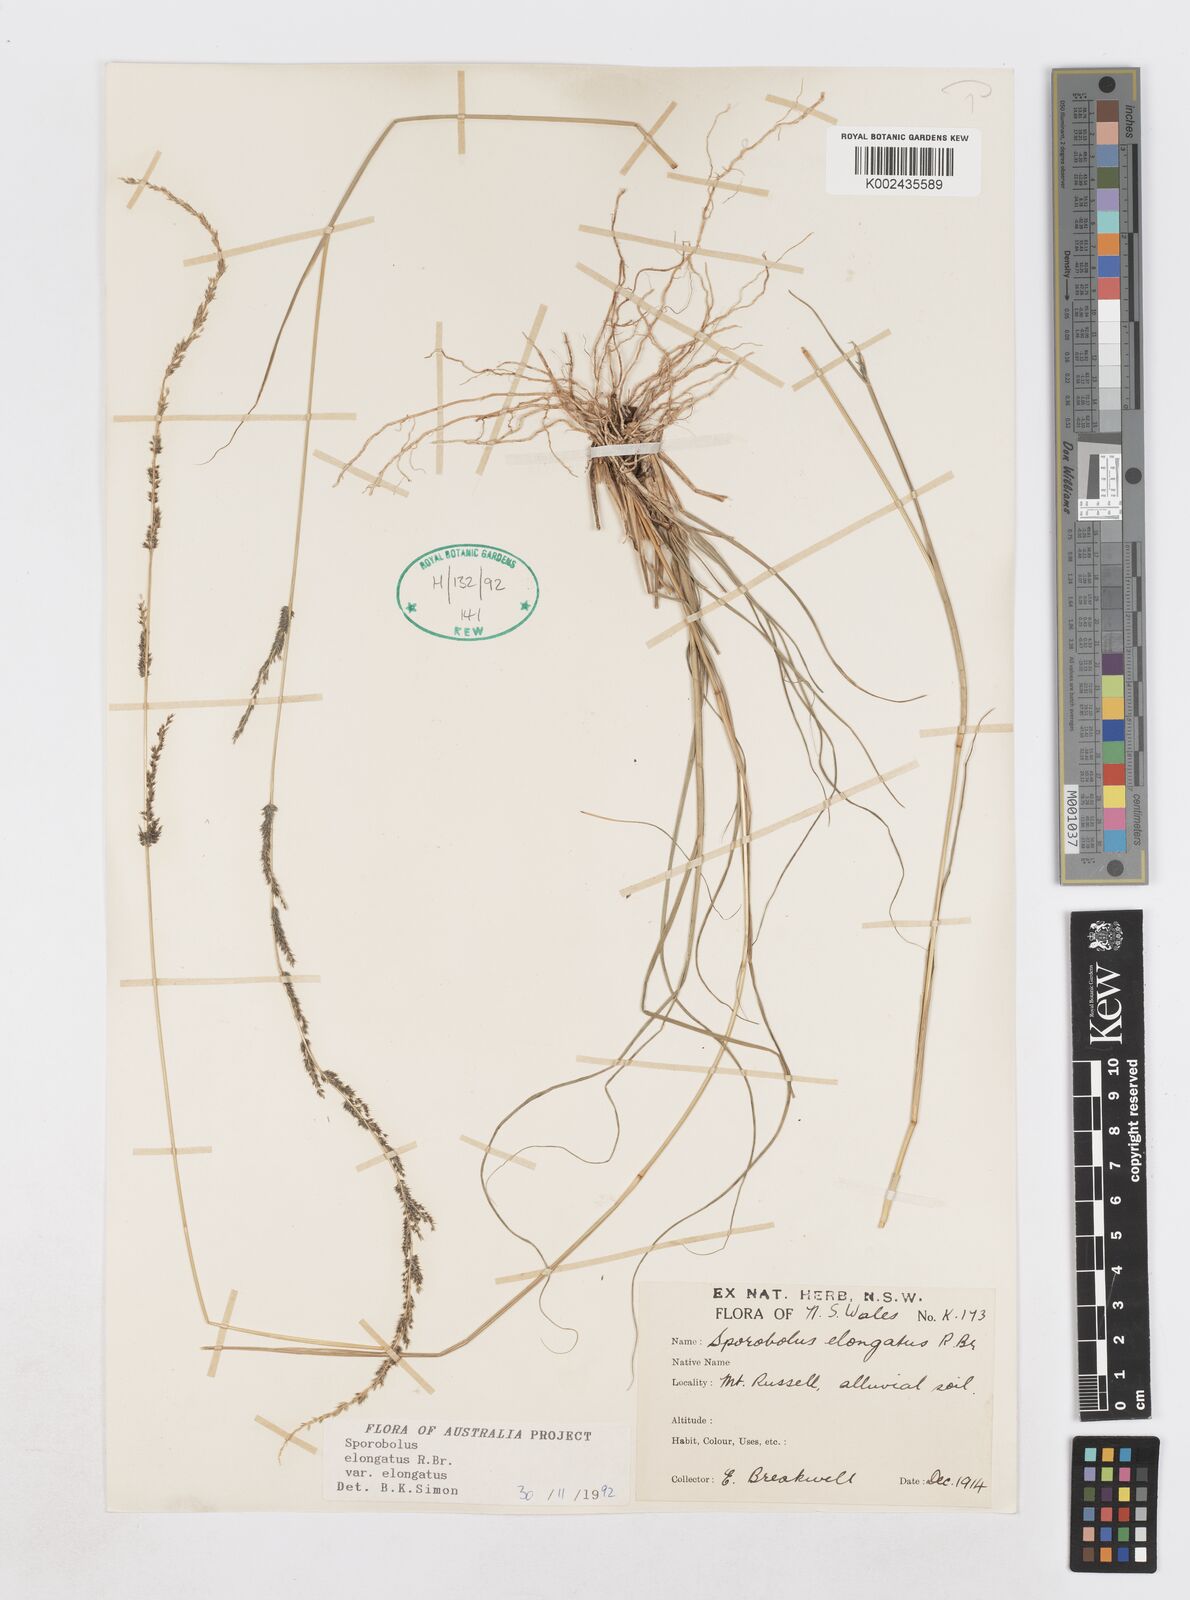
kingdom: Plantae
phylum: Tracheophyta
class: Liliopsida
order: Poales
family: Poaceae
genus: Sporobolus
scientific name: Sporobolus elongatus
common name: Rat tail grass
